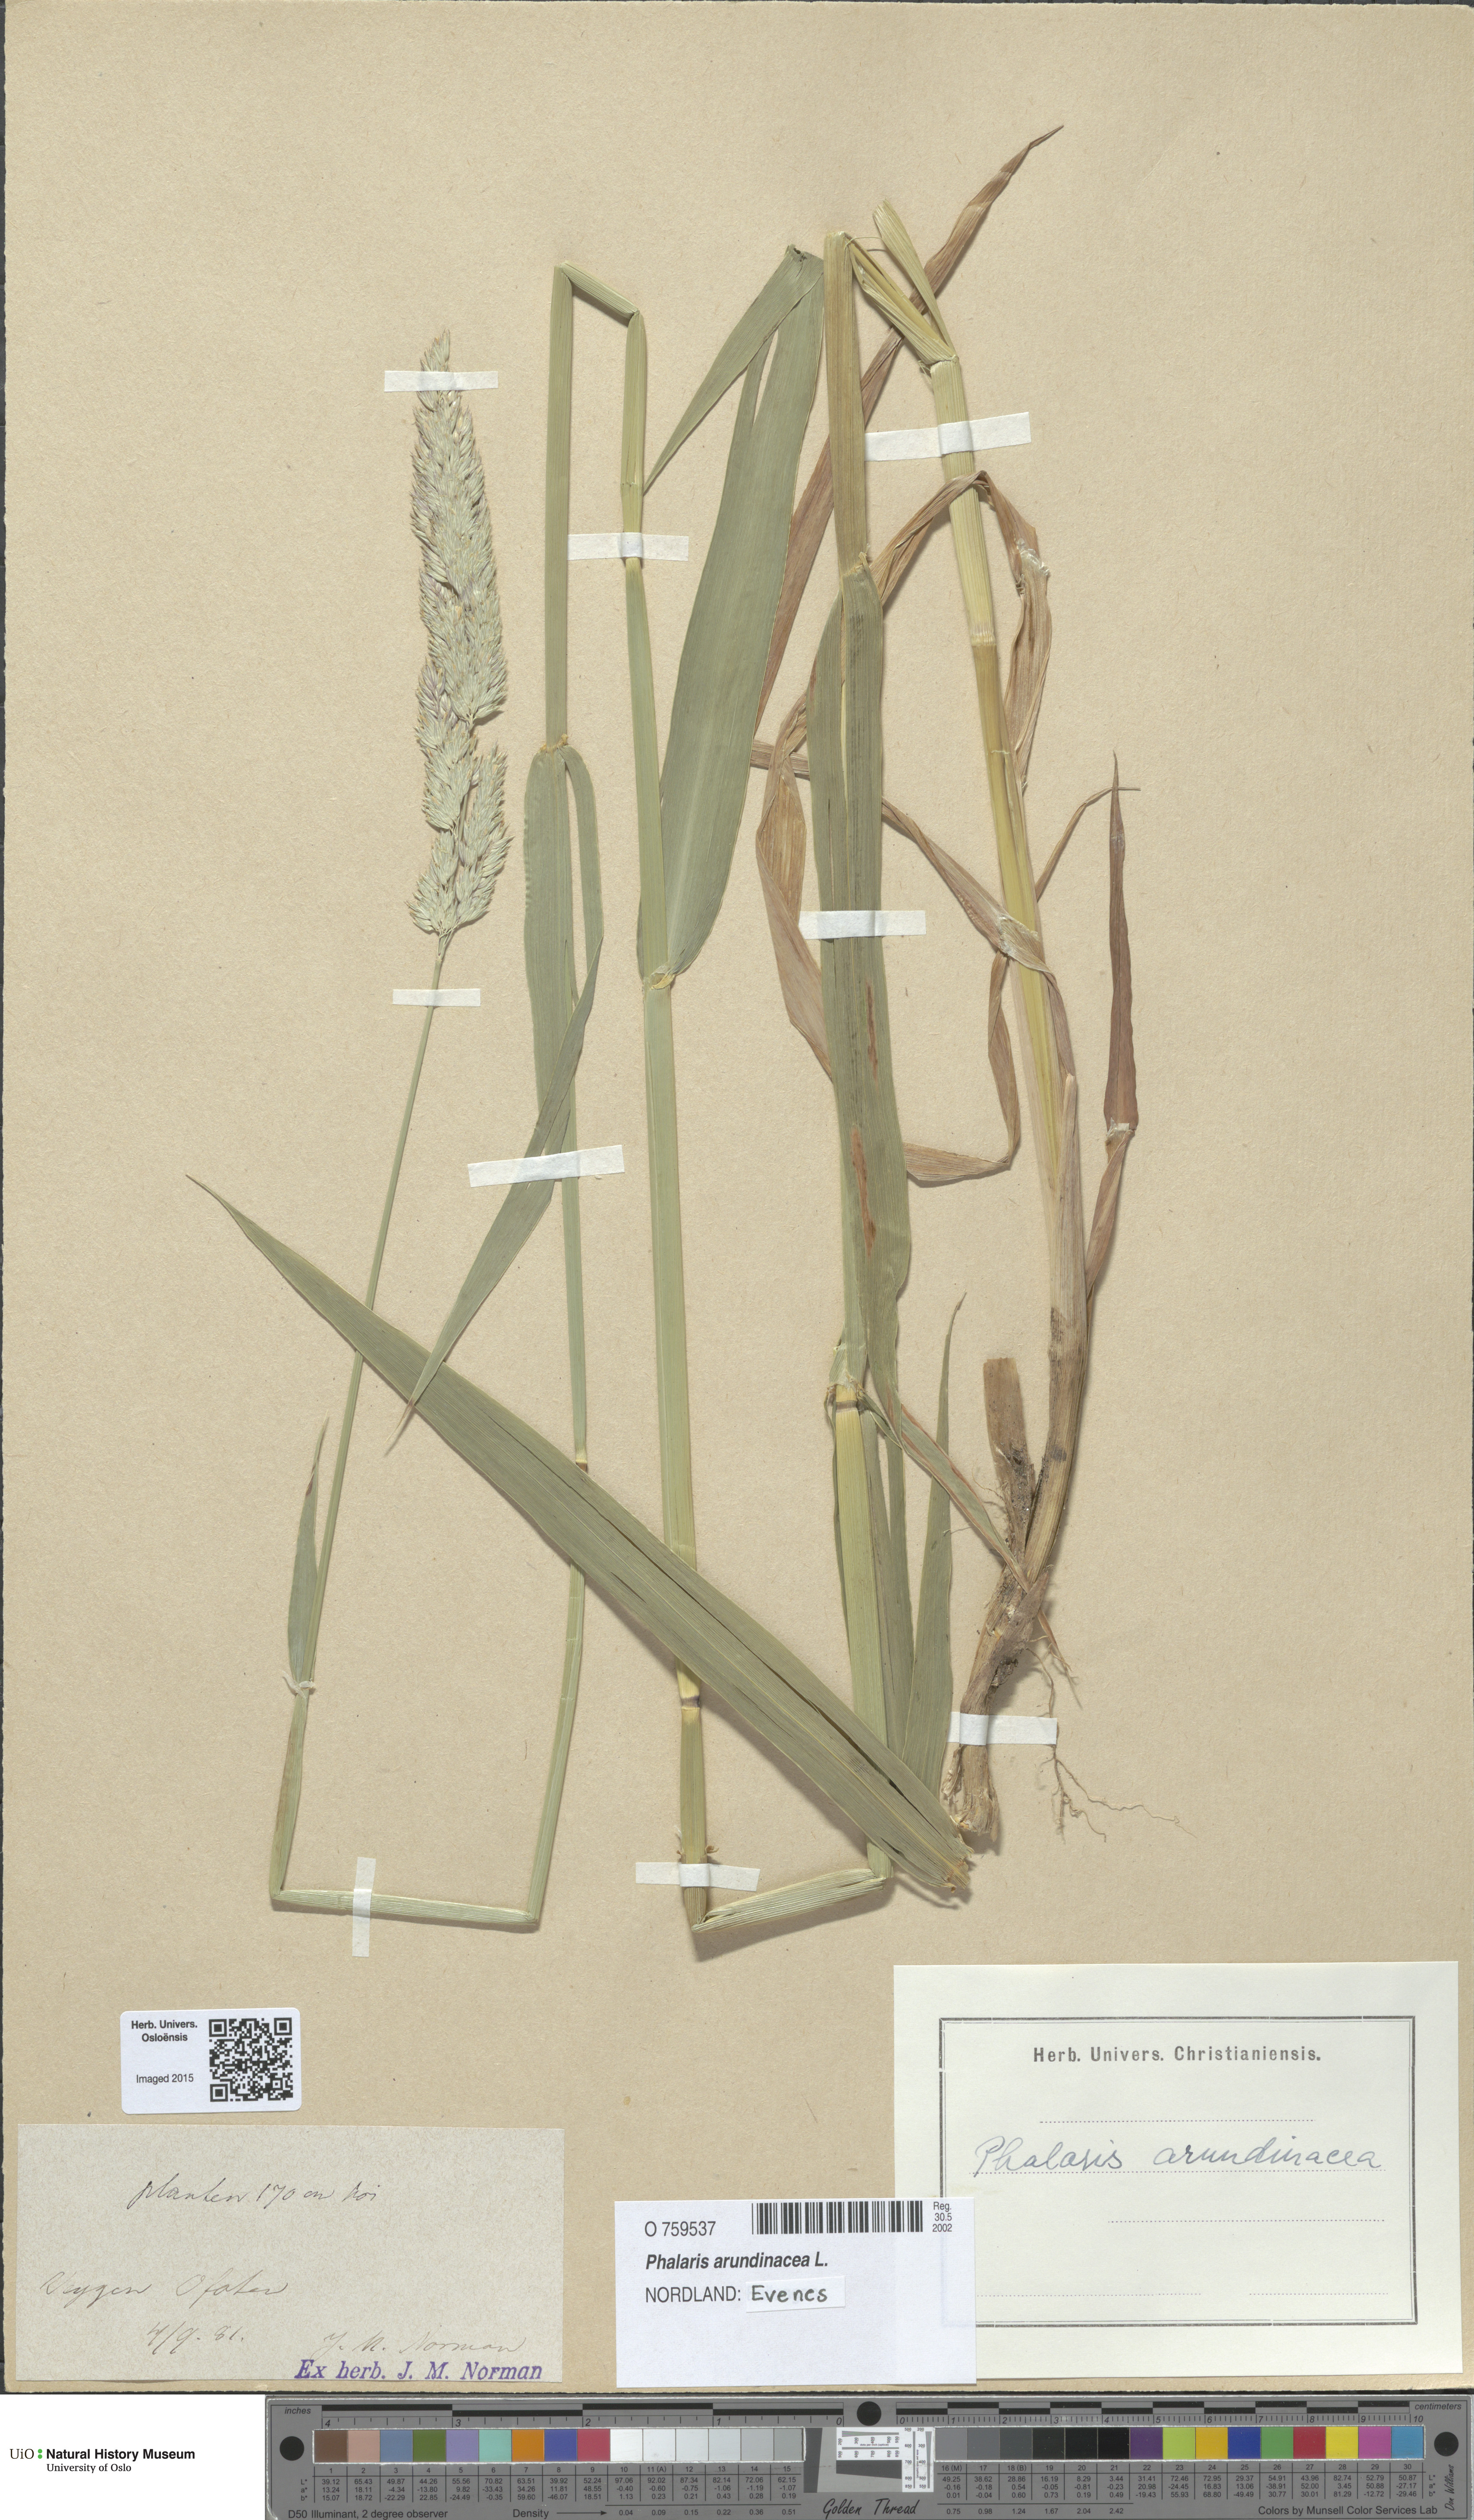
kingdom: Plantae
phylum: Tracheophyta
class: Liliopsida
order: Poales
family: Poaceae
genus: Phalaris
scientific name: Phalaris arundinacea
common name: Reed canary-grass
